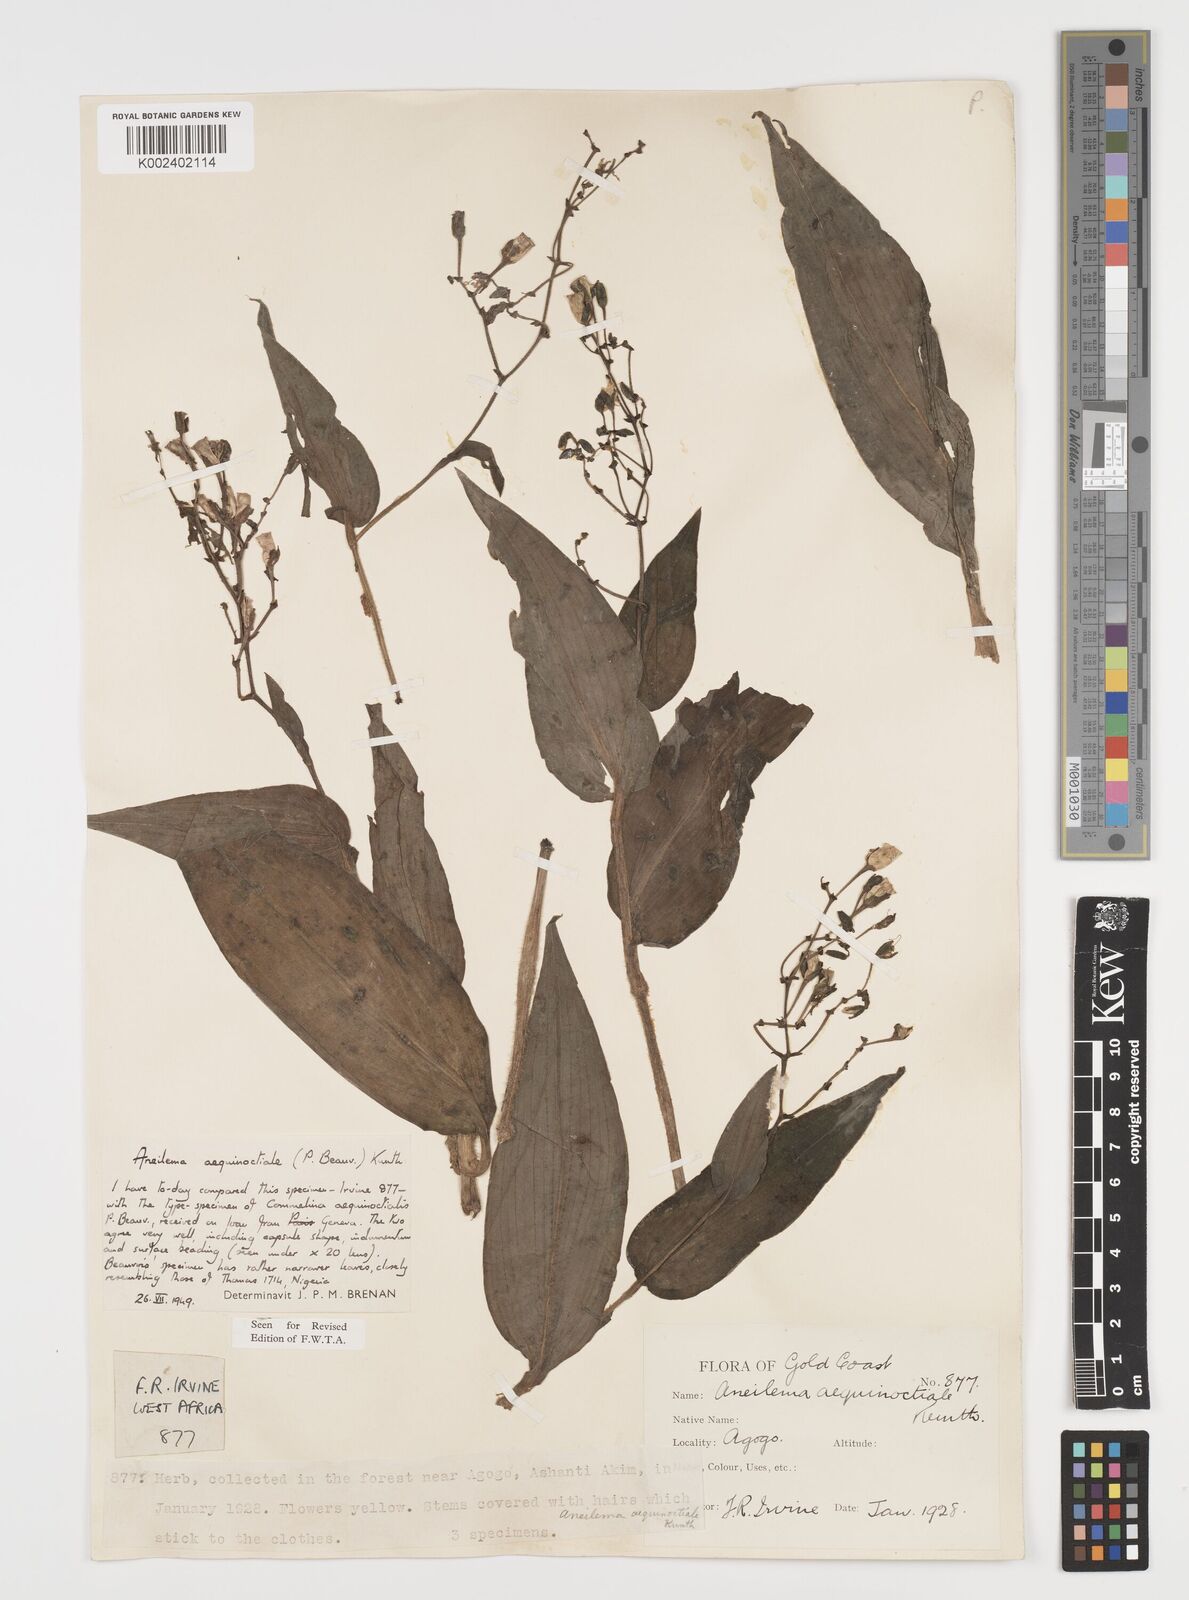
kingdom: Plantae
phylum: Tracheophyta
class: Liliopsida
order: Commelinales
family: Commelinaceae
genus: Aneilema
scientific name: Aneilema aequinoctiale
